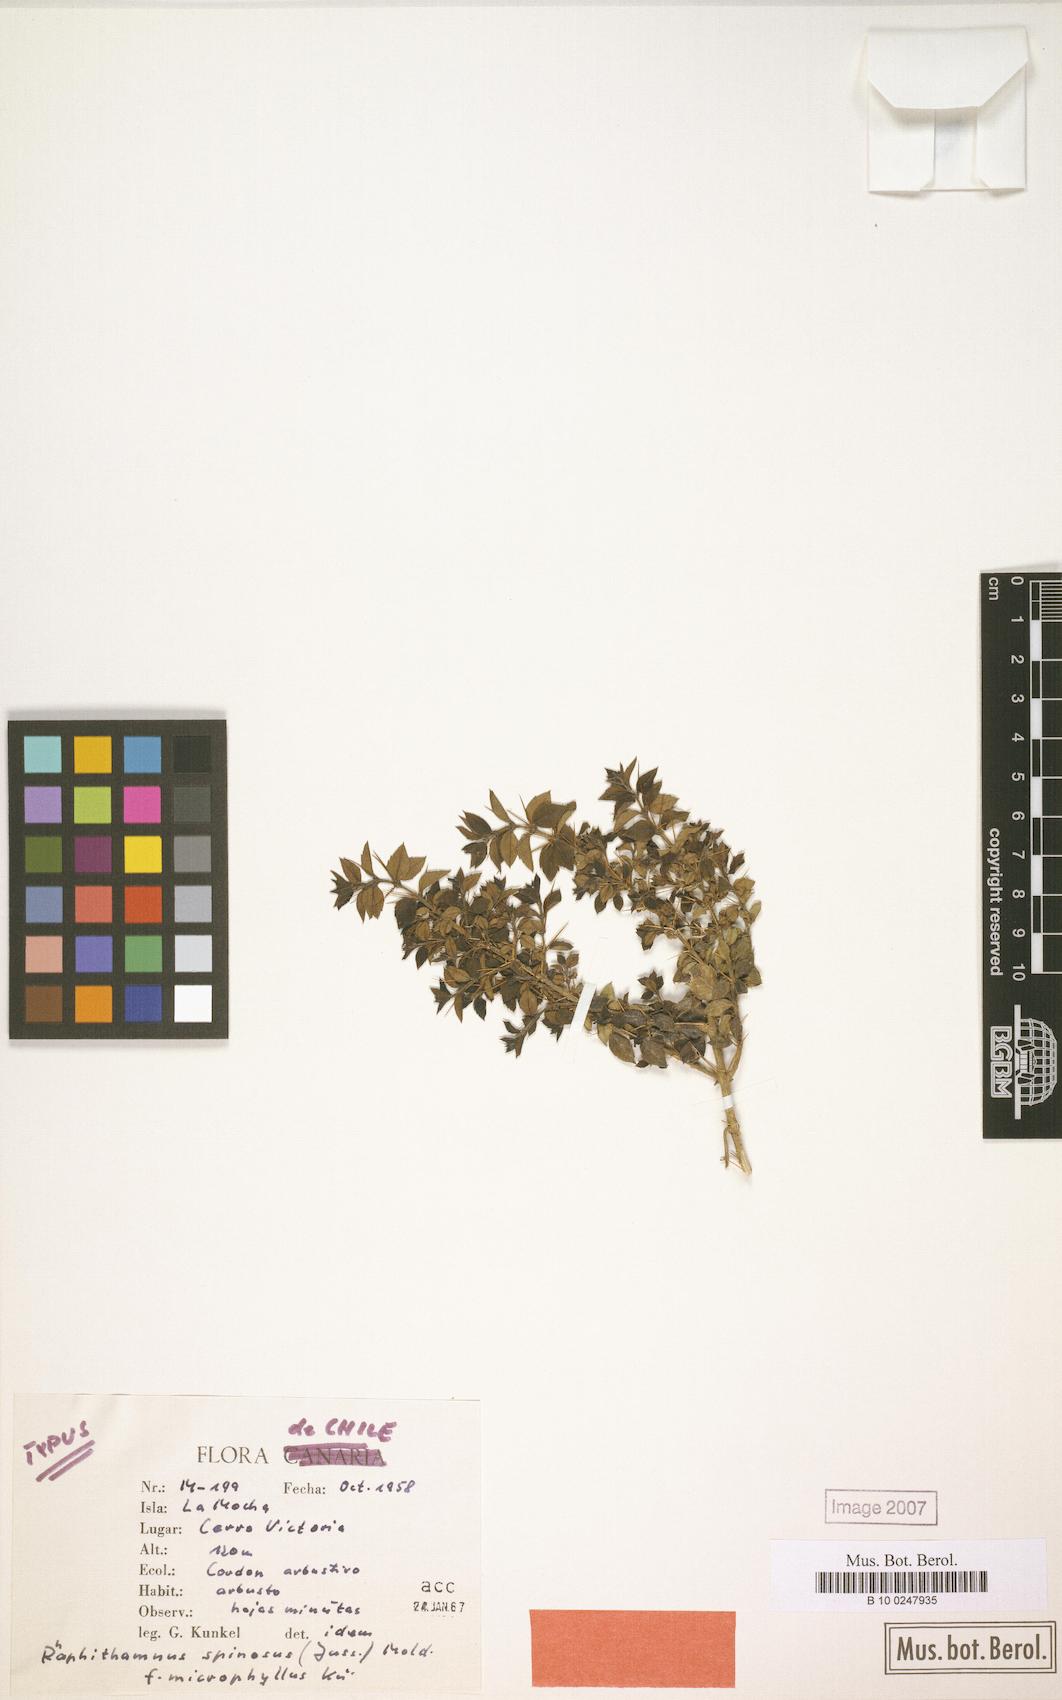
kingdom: Plantae
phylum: Tracheophyta
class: Magnoliopsida
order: Lamiales
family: Verbenaceae
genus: Rhaphithamnus
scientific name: Rhaphithamnus spinosus
